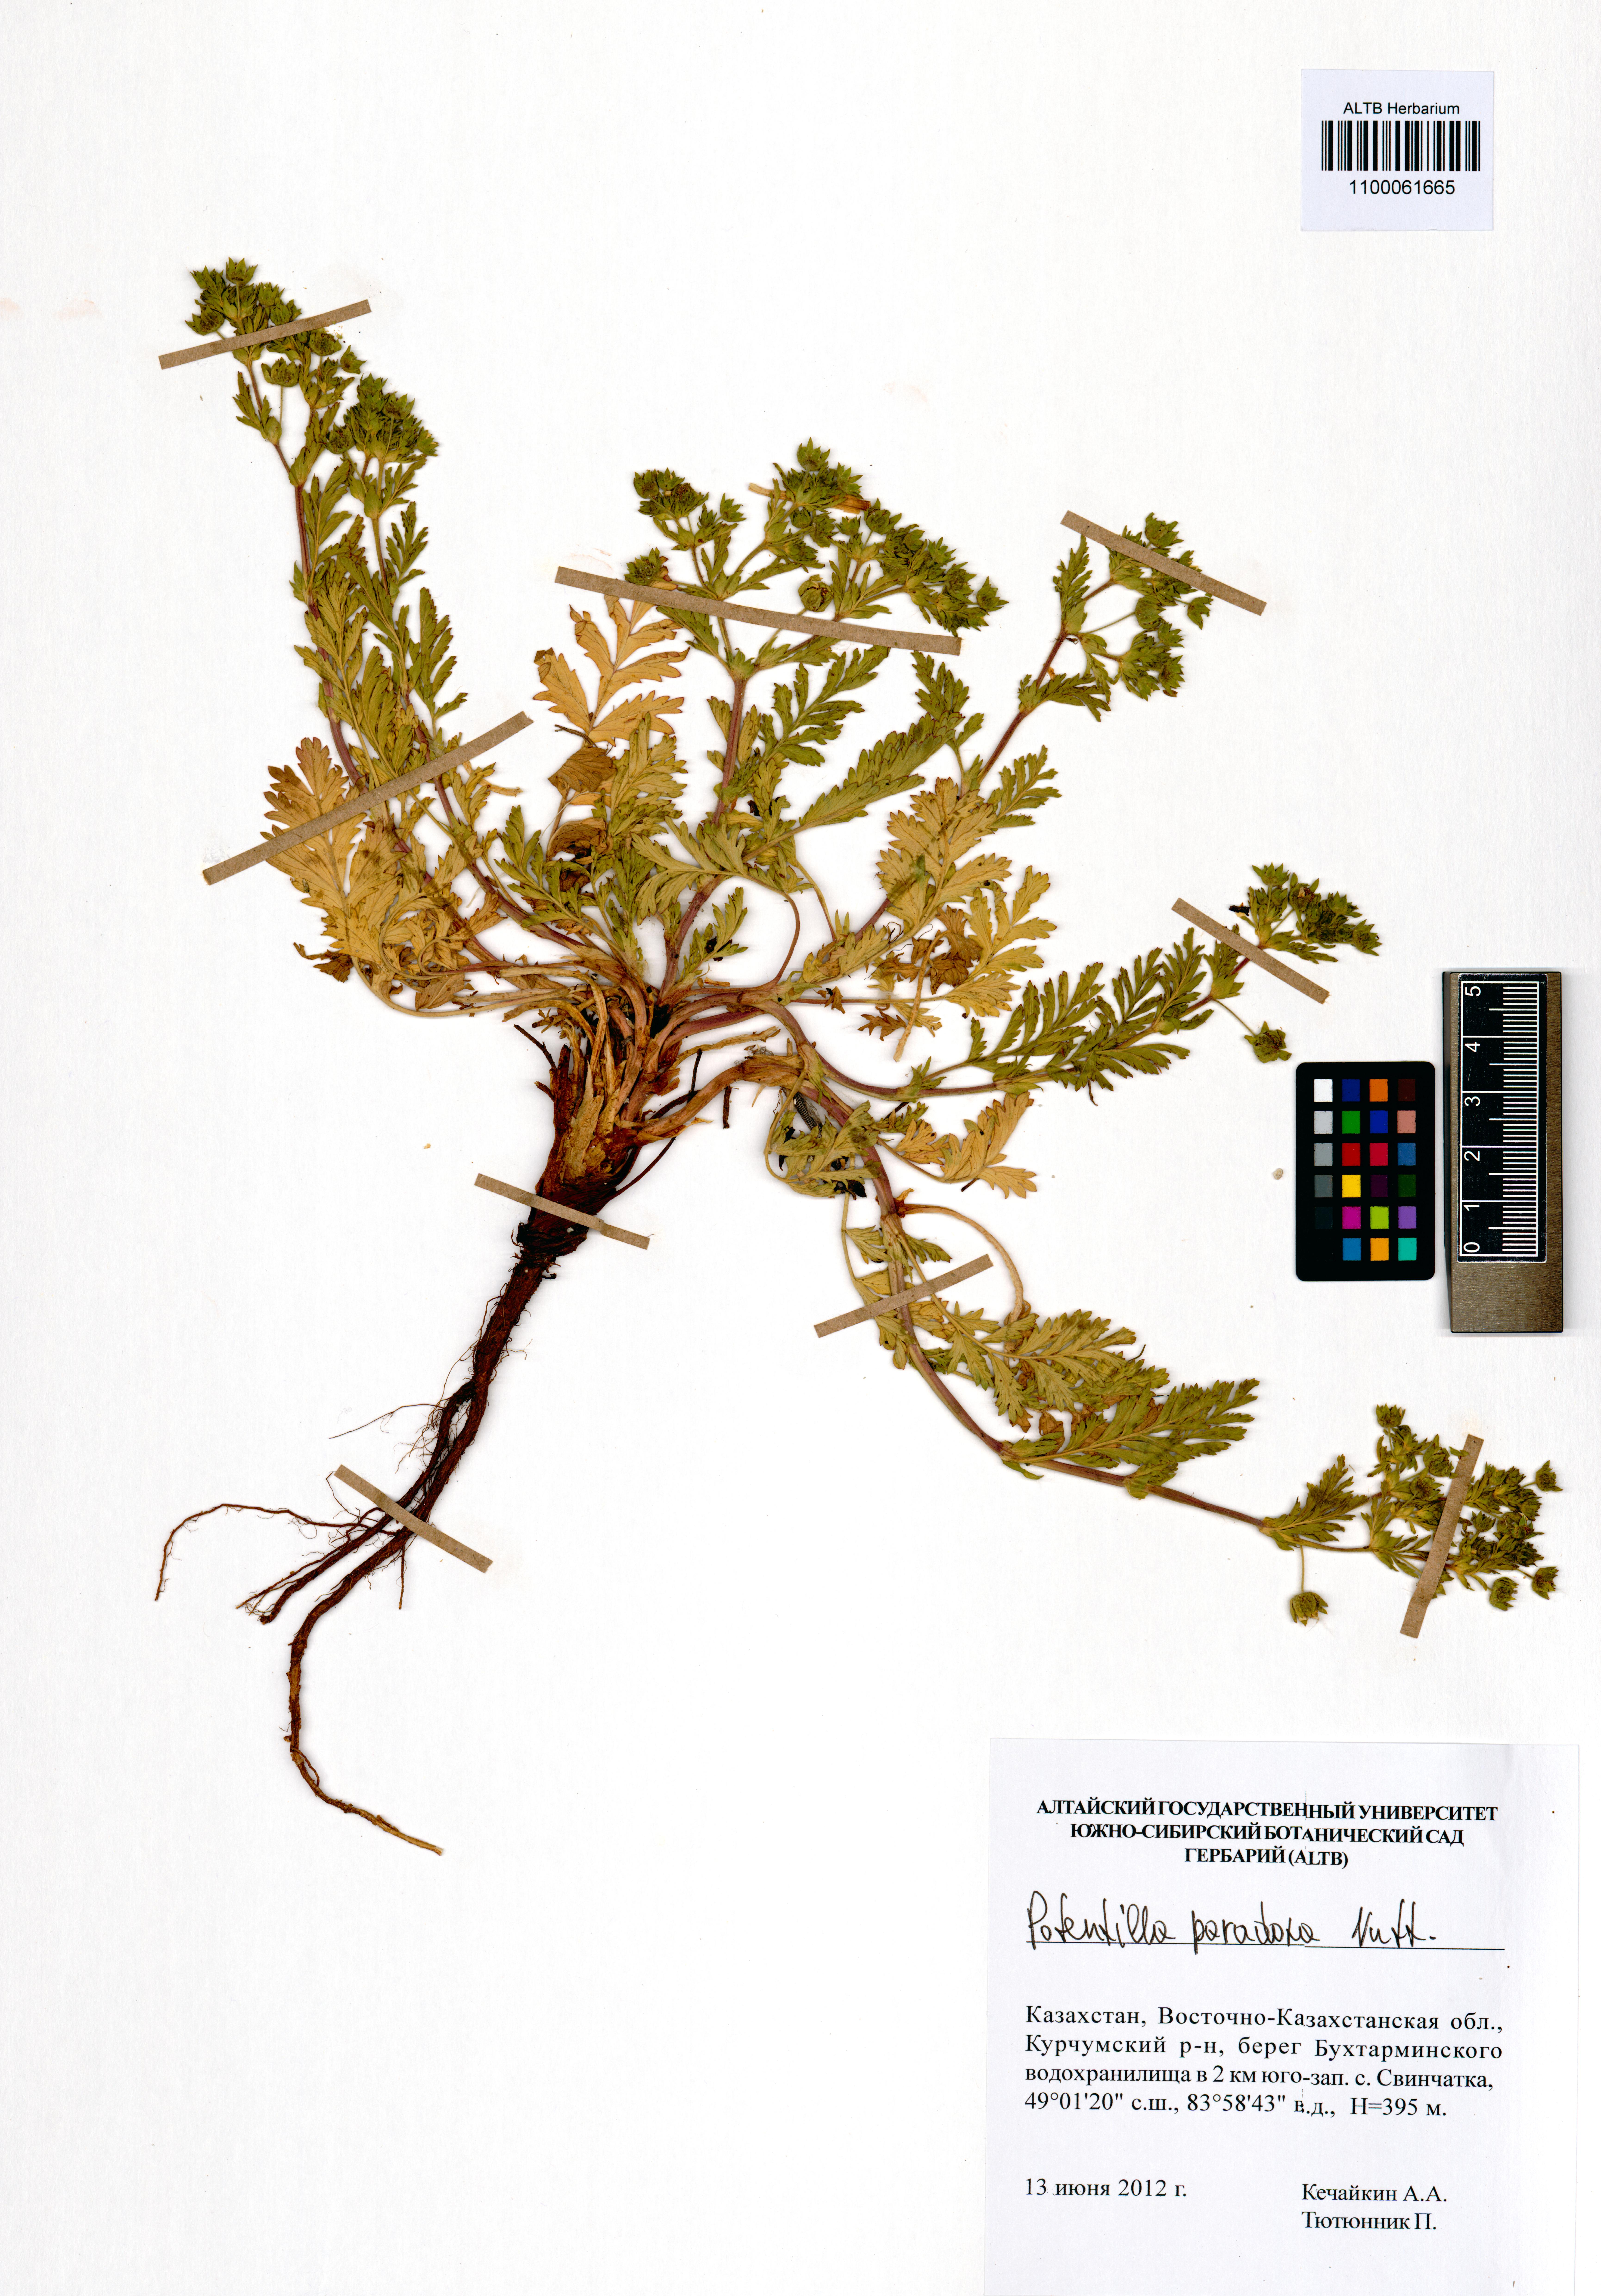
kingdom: Plantae
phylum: Tracheophyta
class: Magnoliopsida
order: Rosales
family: Rosaceae
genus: Potentilla
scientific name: Potentilla supina
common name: Prostrate cinquefoil
